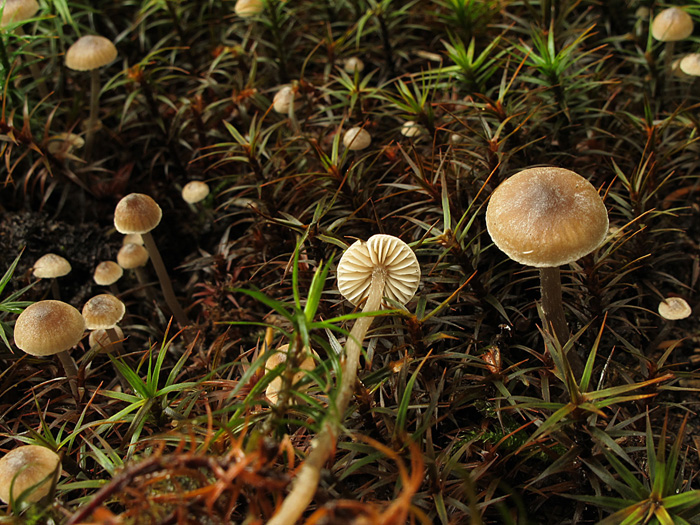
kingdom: Fungi
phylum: Basidiomycota
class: Agaricomycetes
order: Agaricales
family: Lyophyllaceae
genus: Sagaranella
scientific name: Sagaranella tylicolor
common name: kvælstof-gråblad
